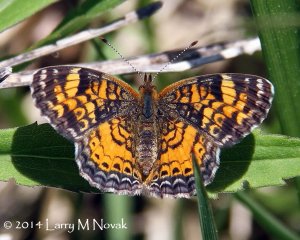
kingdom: Animalia
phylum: Arthropoda
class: Insecta
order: Lepidoptera
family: Nymphalidae
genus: Phyciodes
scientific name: Phyciodes tharos
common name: Northern Crescent
